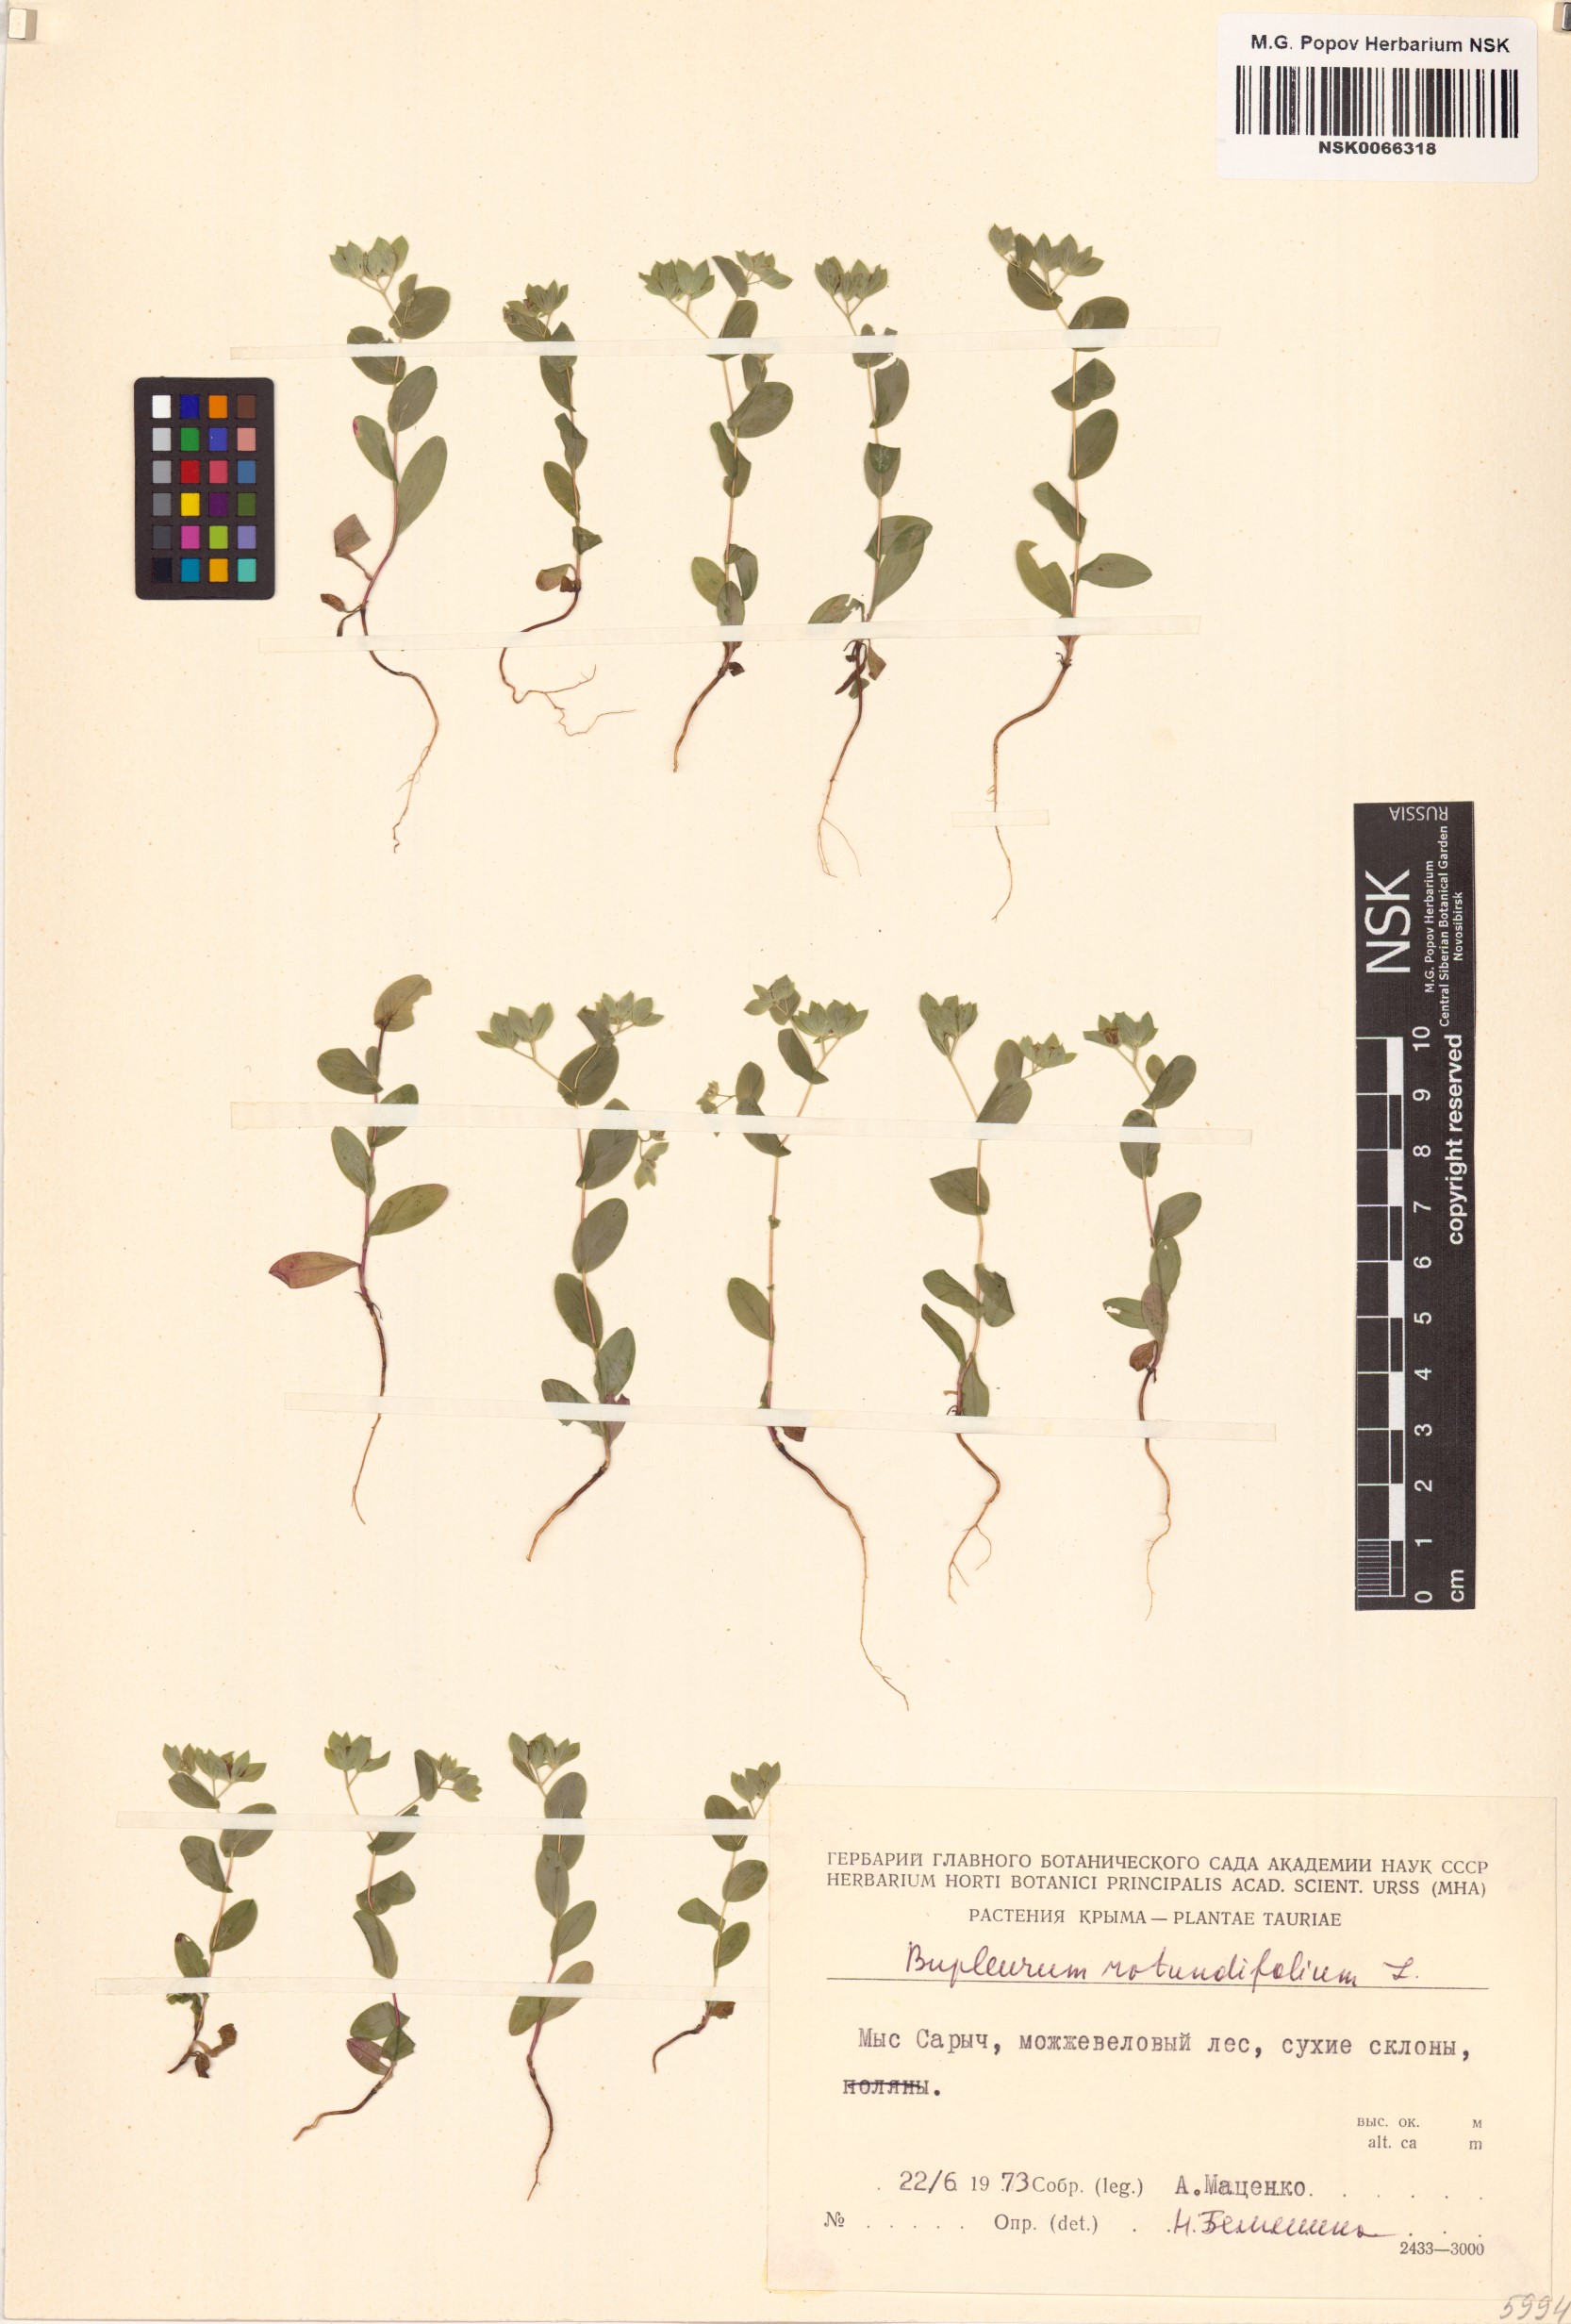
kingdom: Plantae
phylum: Tracheophyta
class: Magnoliopsida
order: Apiales
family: Apiaceae
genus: Bupleurum
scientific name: Bupleurum rotundifolium
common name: Thorow-wax
